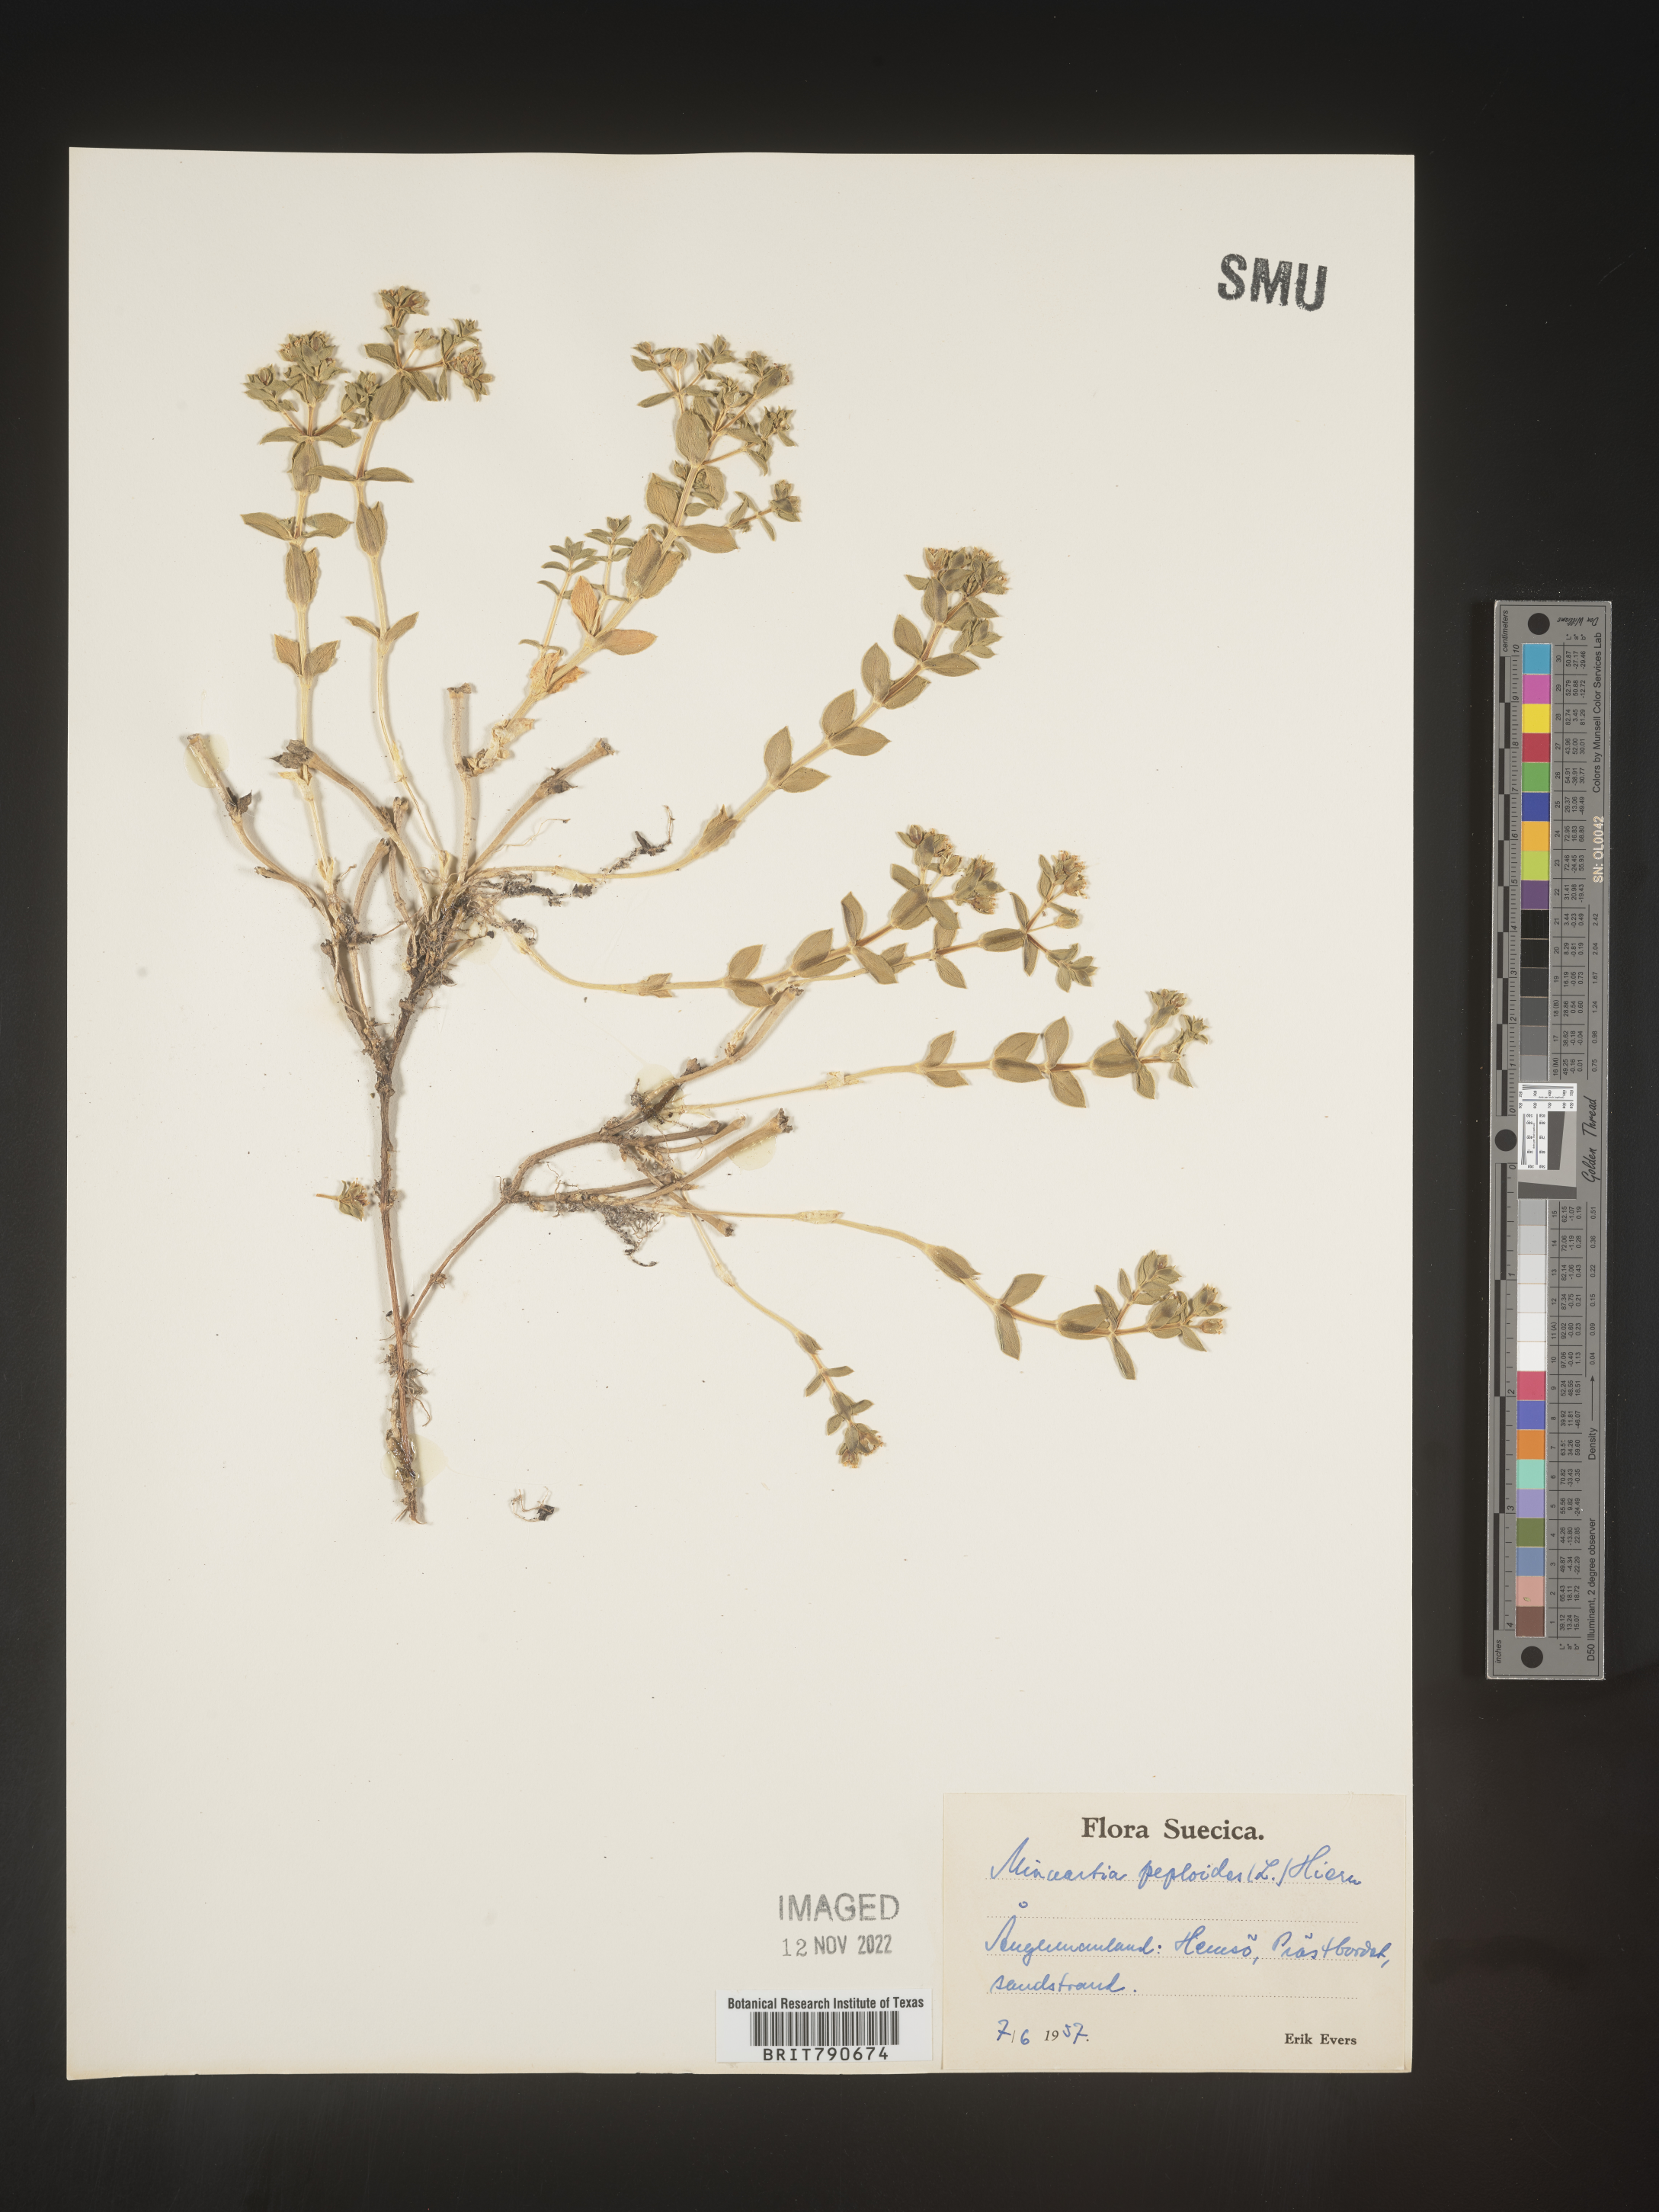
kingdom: Plantae
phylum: Tracheophyta
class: Magnoliopsida
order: Malvales
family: Malvaceae
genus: Clappertonia
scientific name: Clappertonia
